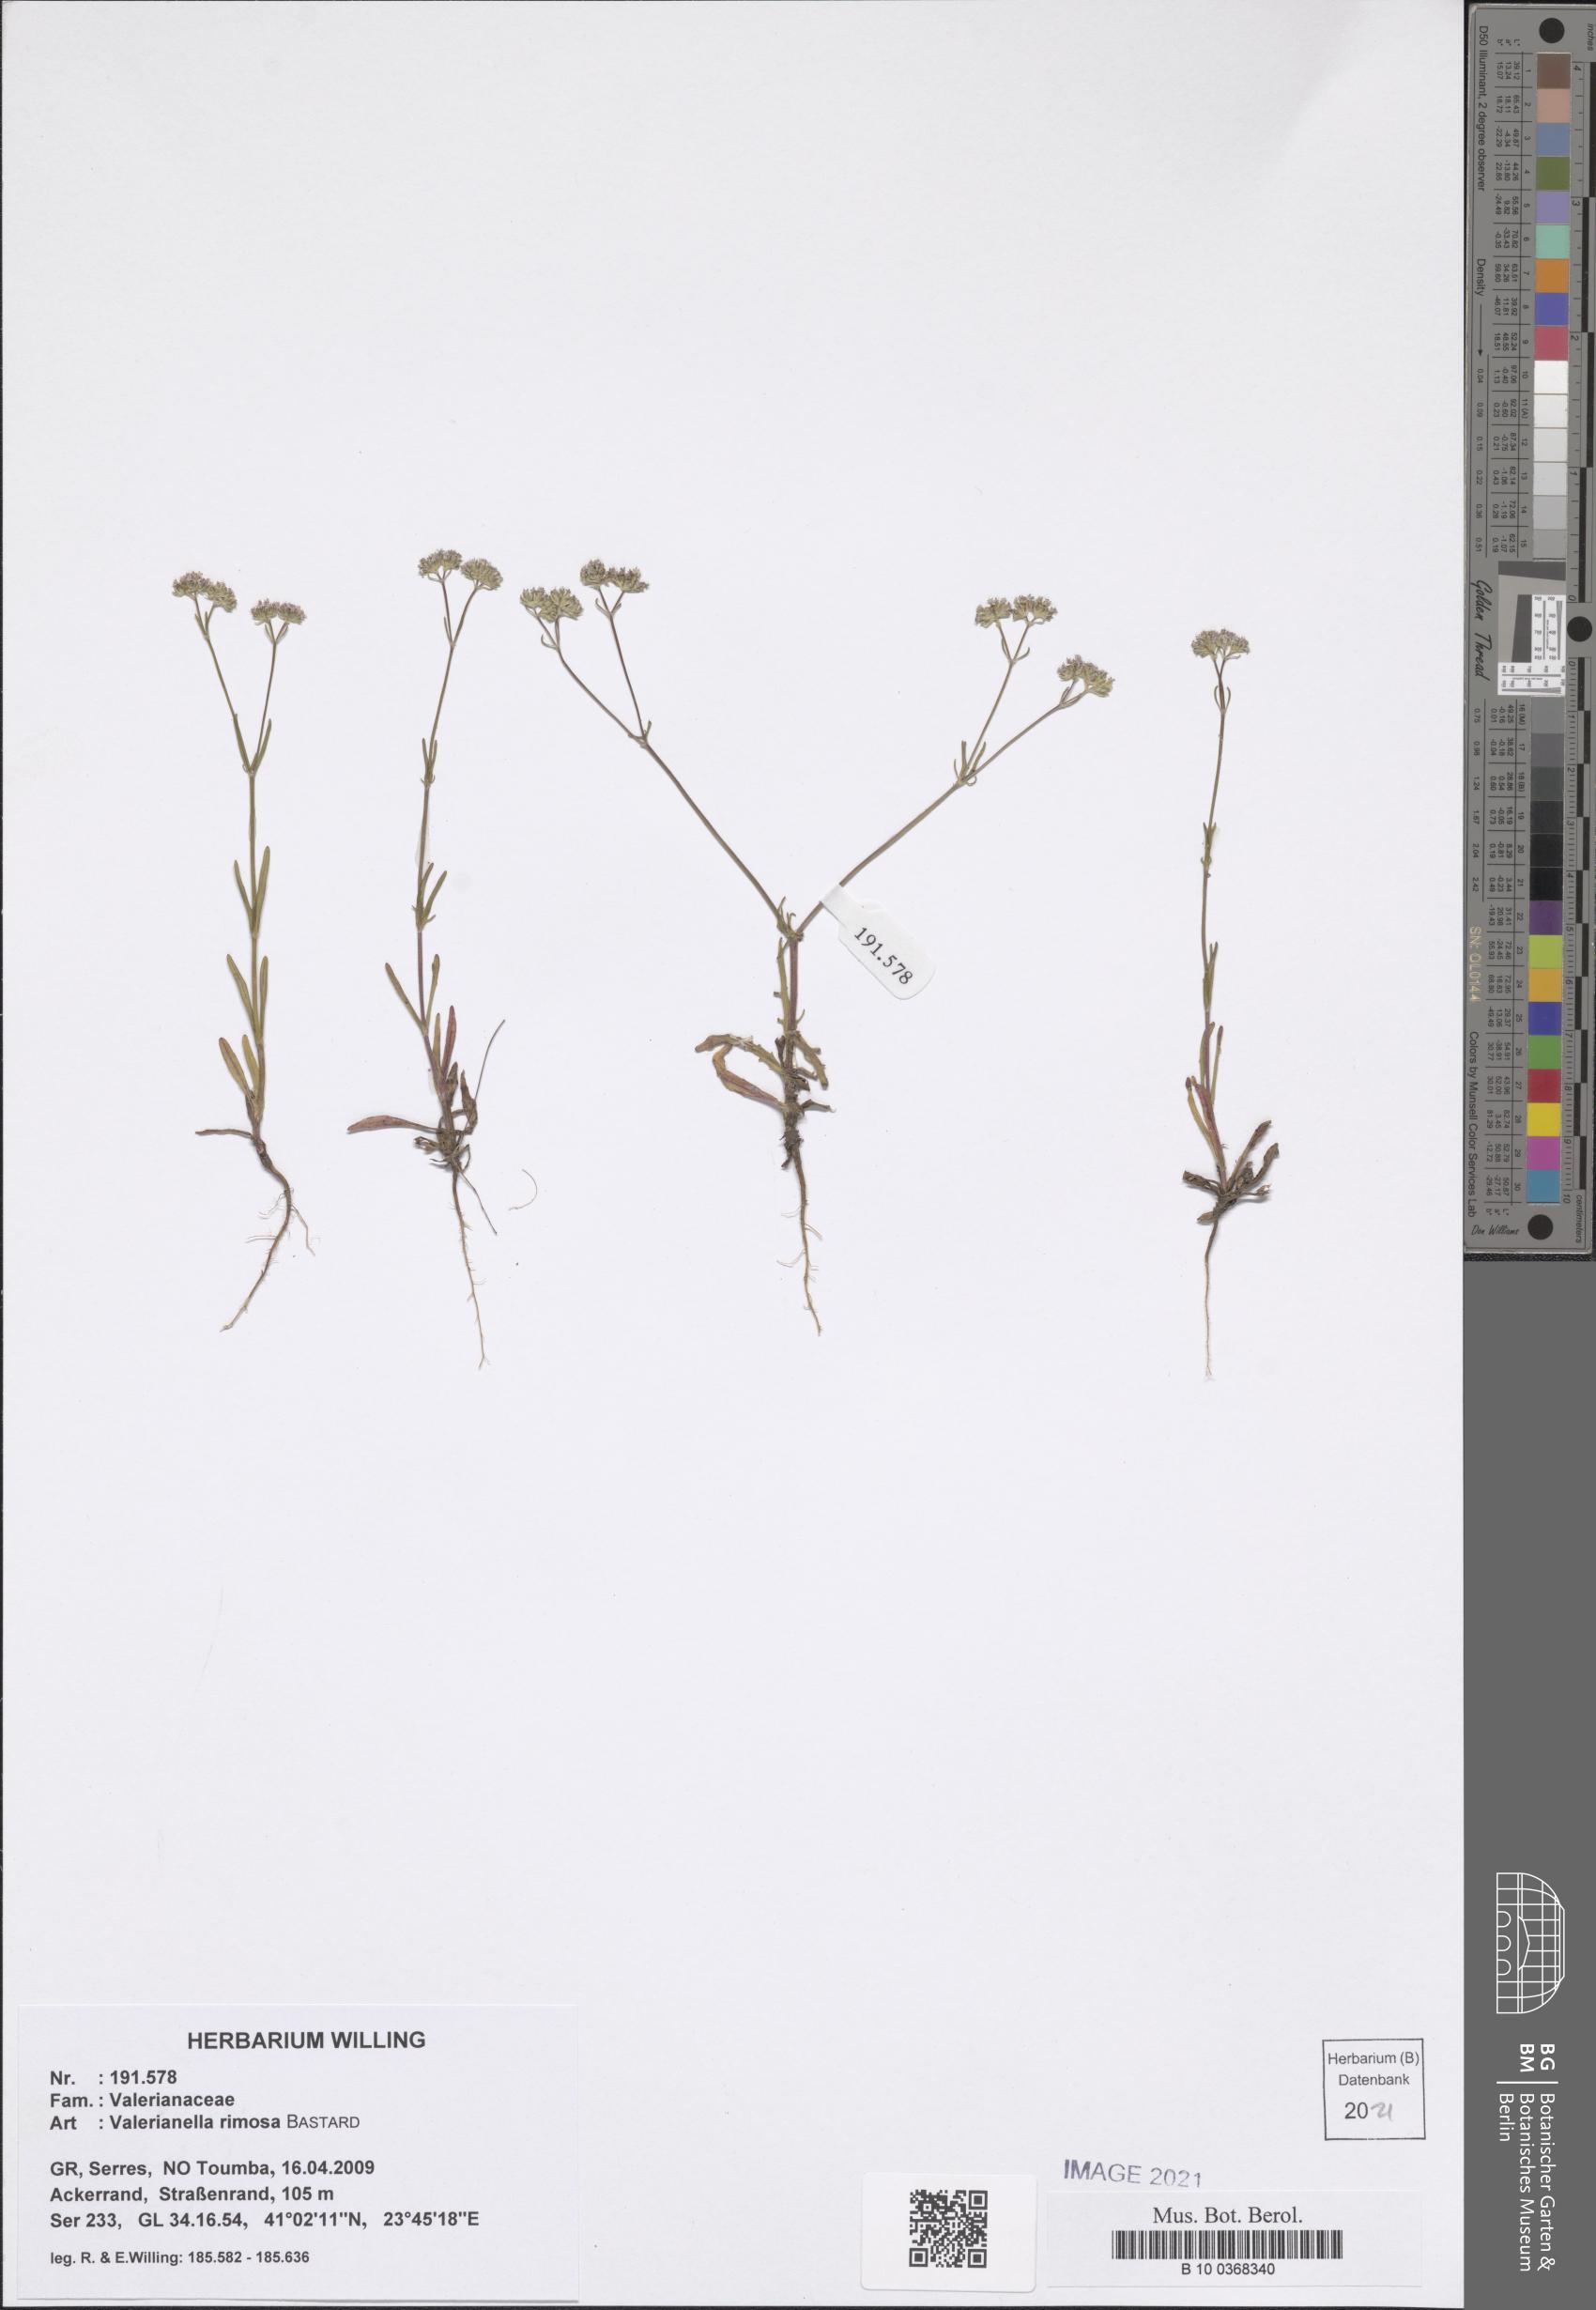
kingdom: Plantae
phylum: Tracheophyta
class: Magnoliopsida
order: Dipsacales
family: Caprifoliaceae
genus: Valerianella
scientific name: Valerianella rimosa
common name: Broad-fruited cornsalad
